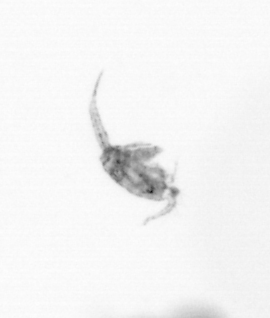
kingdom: Animalia
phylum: Arthropoda
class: Copepoda
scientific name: Copepoda
